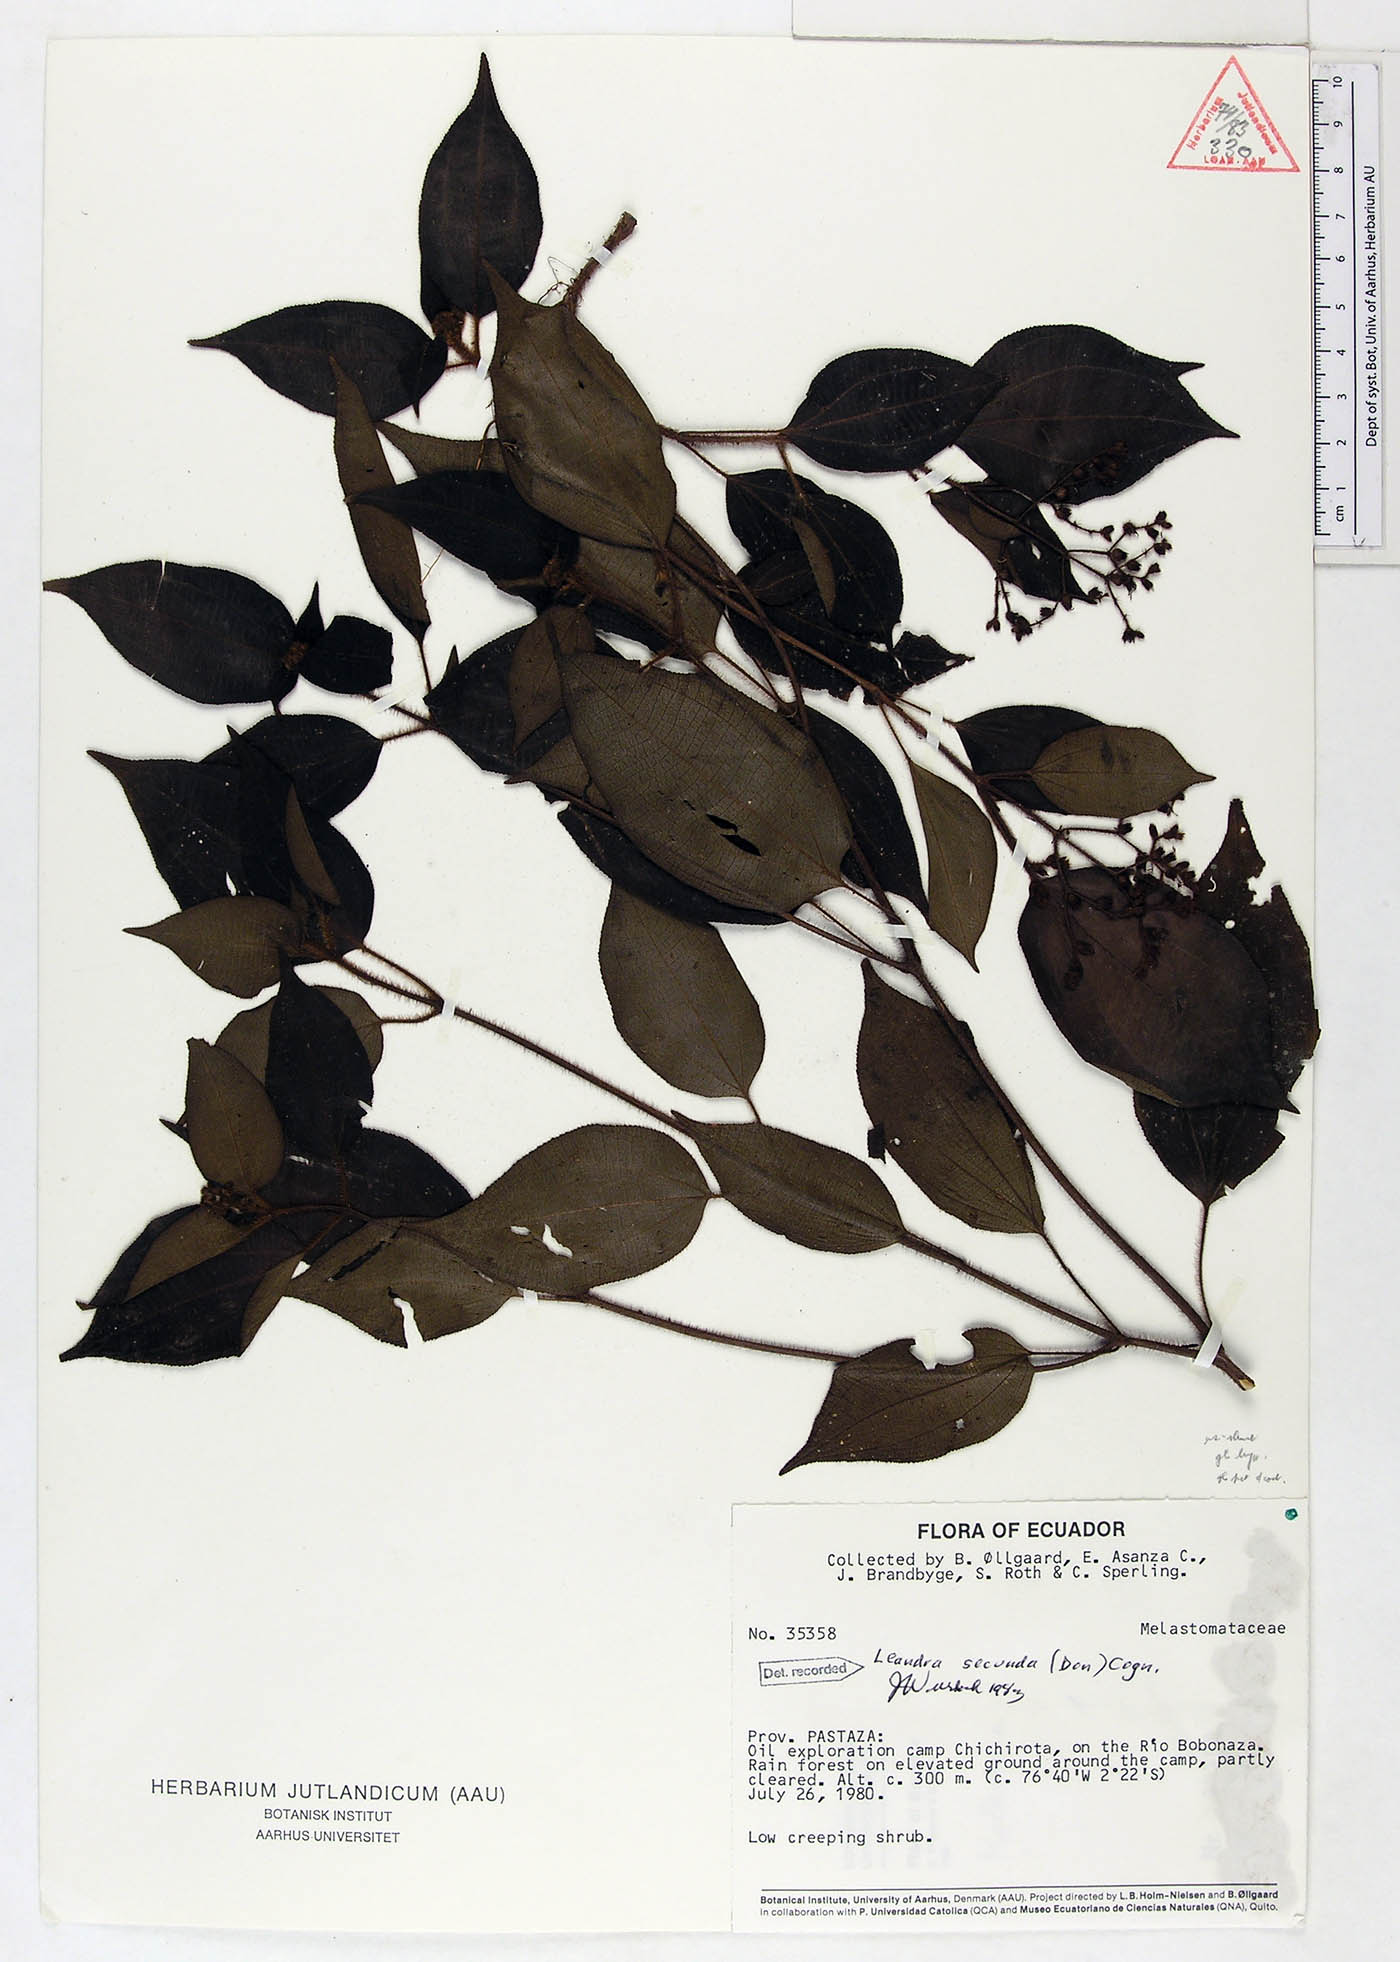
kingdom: Plantae
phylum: Tracheophyta
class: Magnoliopsida
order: Myrtales
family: Melastomataceae
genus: Miconia
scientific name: Miconia neosecunda
